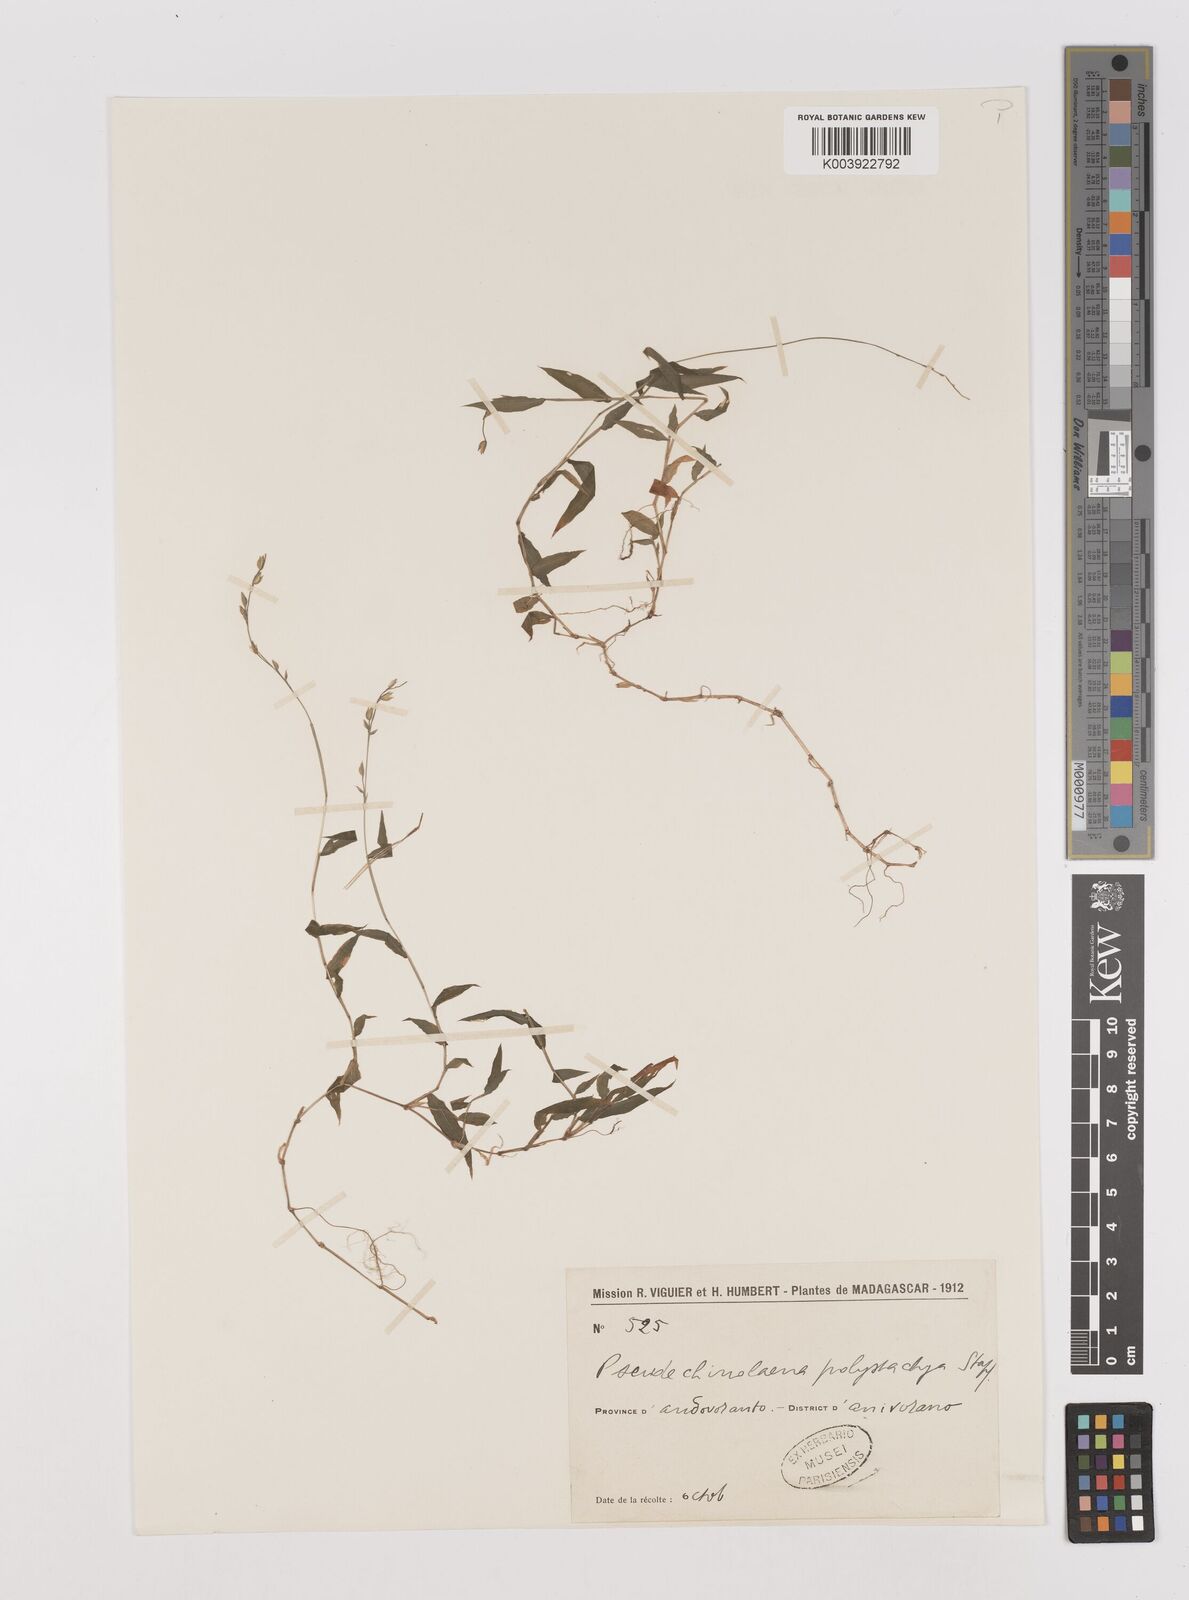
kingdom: Plantae
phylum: Tracheophyta
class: Liliopsida
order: Poales
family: Poaceae
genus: Pseudechinolaena
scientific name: Pseudechinolaena polystachya
